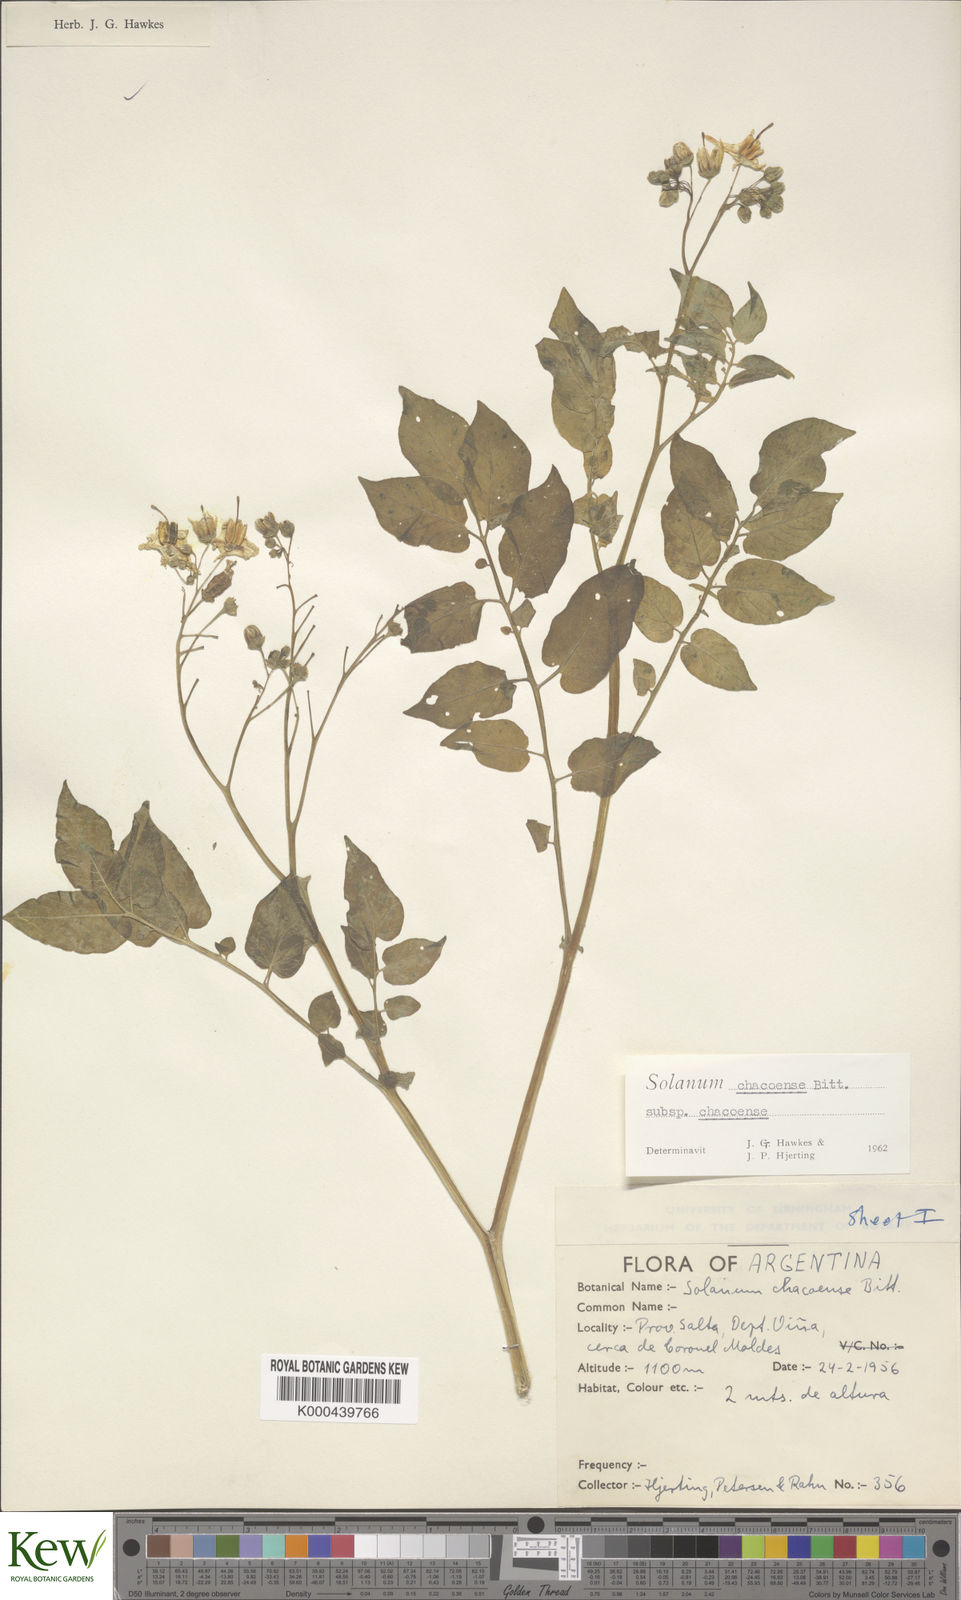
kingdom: Plantae
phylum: Tracheophyta
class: Magnoliopsida
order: Solanales
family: Solanaceae
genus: Solanum
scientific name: Solanum chacoense
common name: Chaco potato
